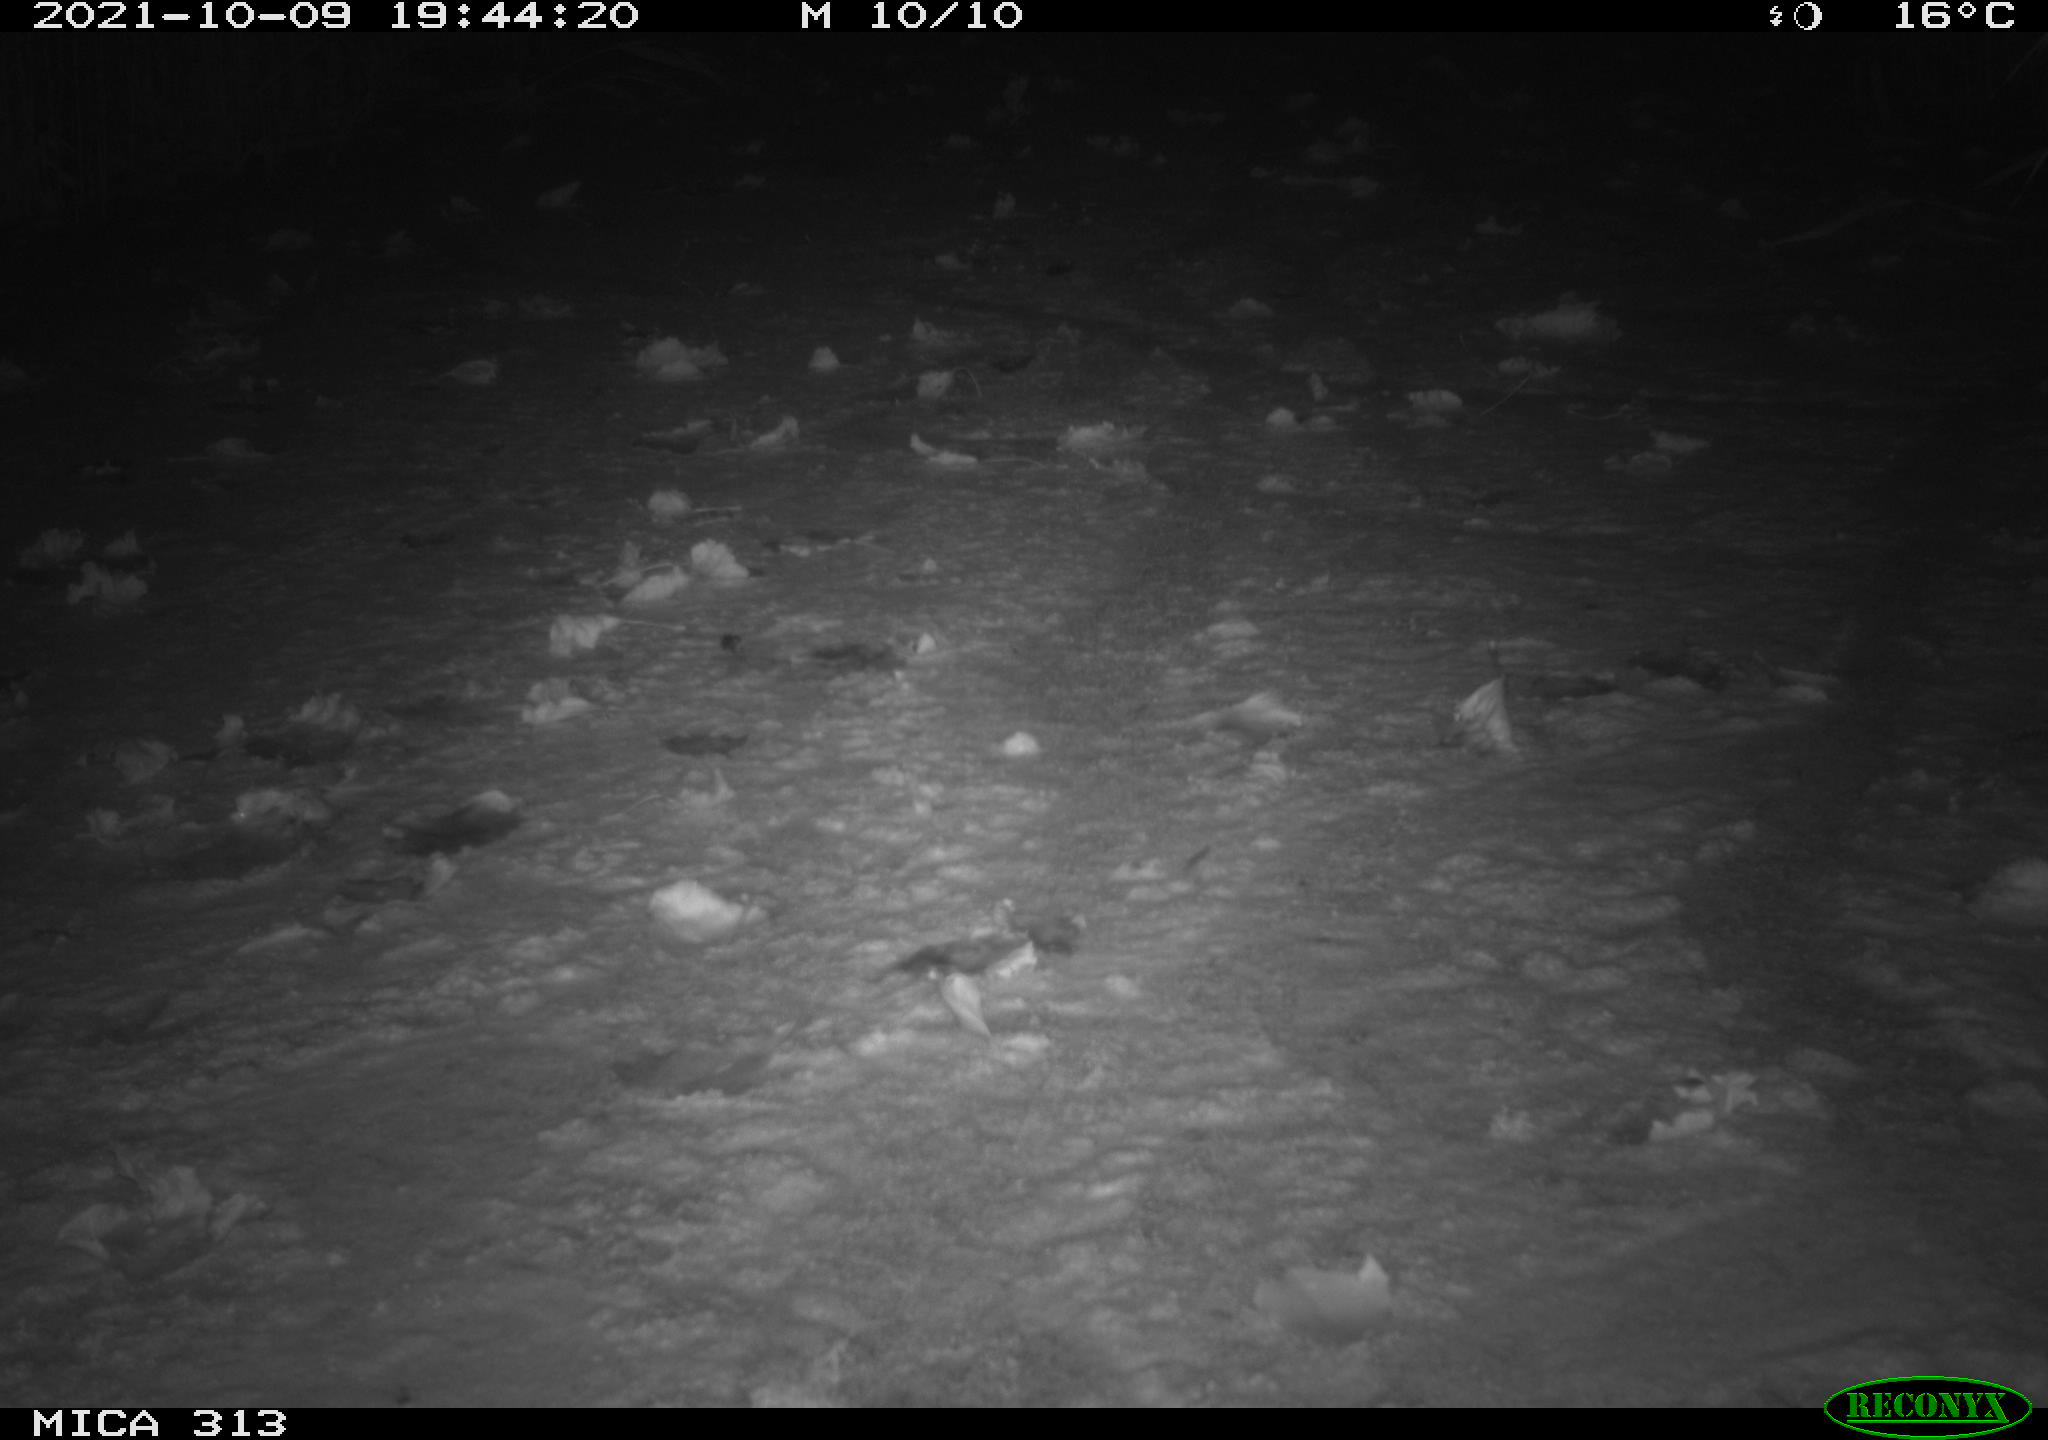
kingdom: Animalia
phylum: Chordata
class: Aves
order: Gruiformes
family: Rallidae
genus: Gallinula
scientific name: Gallinula chloropus
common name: Common moorhen
